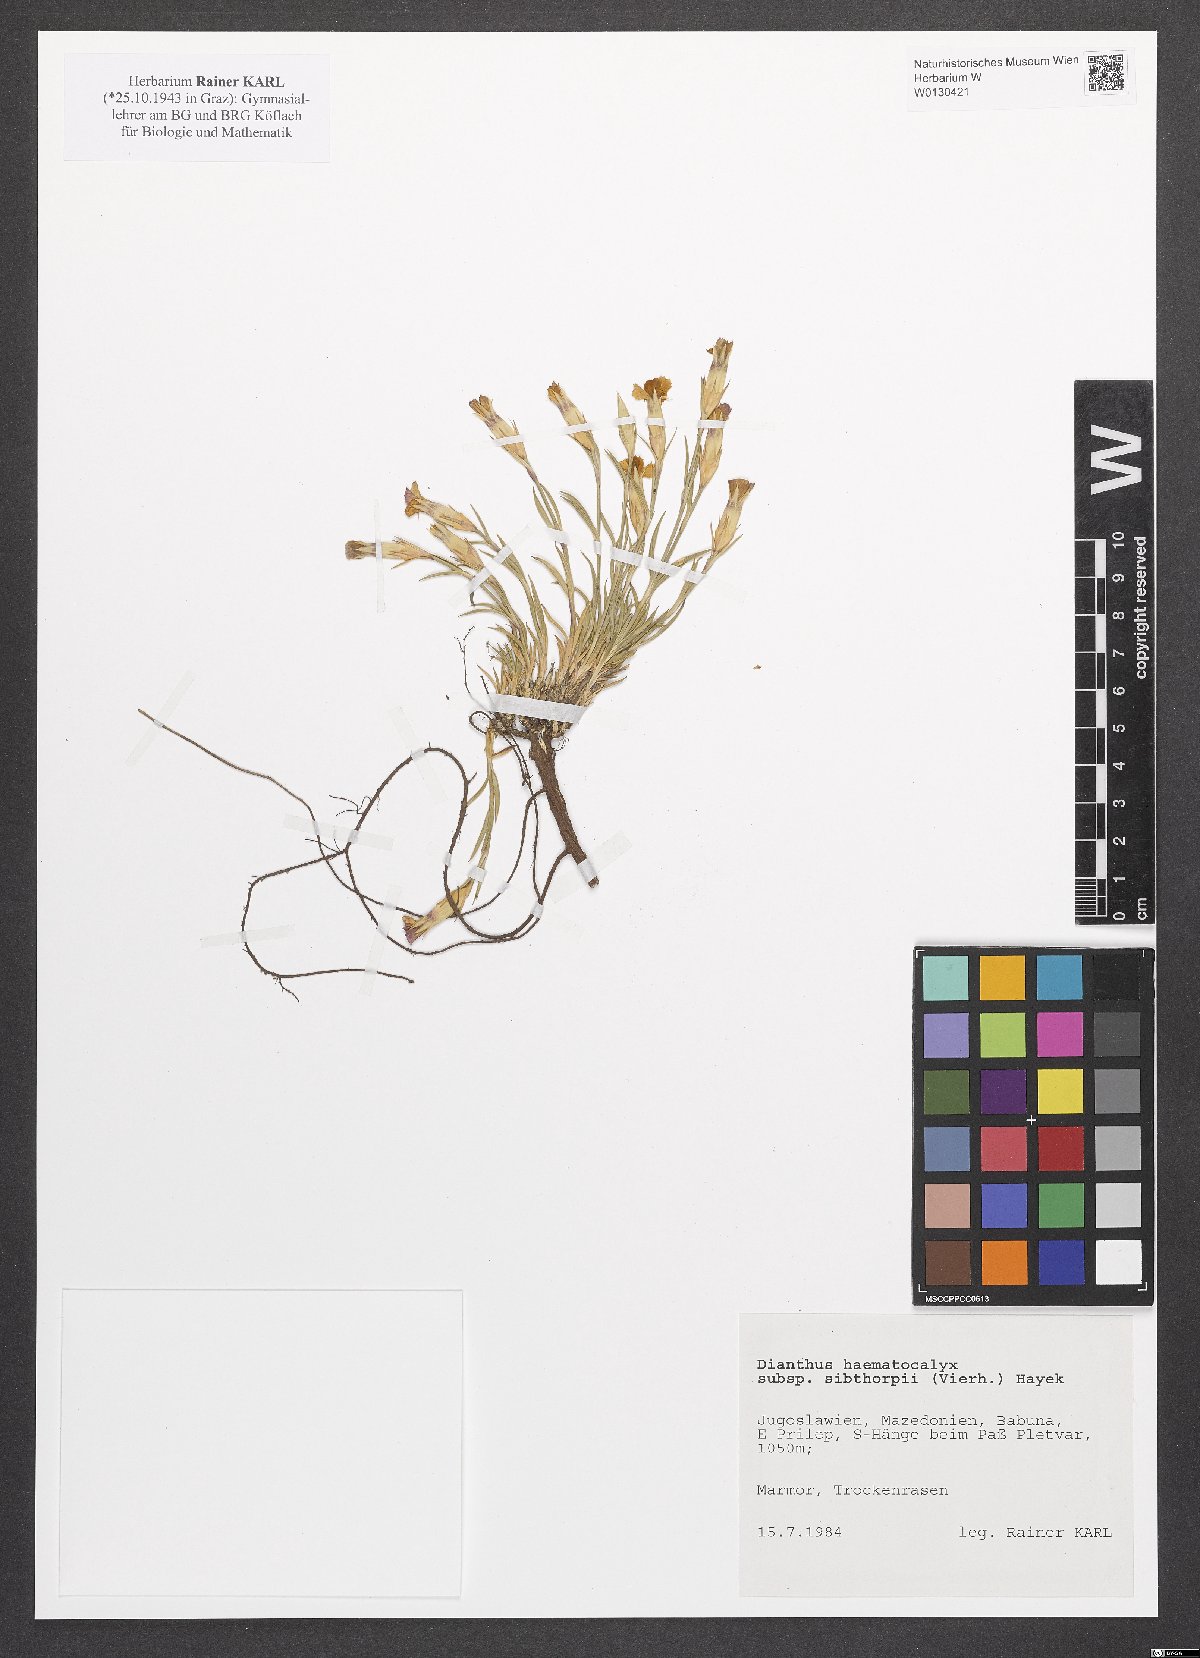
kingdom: Plantae
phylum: Tracheophyta
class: Magnoliopsida
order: Caryophyllales
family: Caryophyllaceae
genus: Dianthus
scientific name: Dianthus haematocalyx
